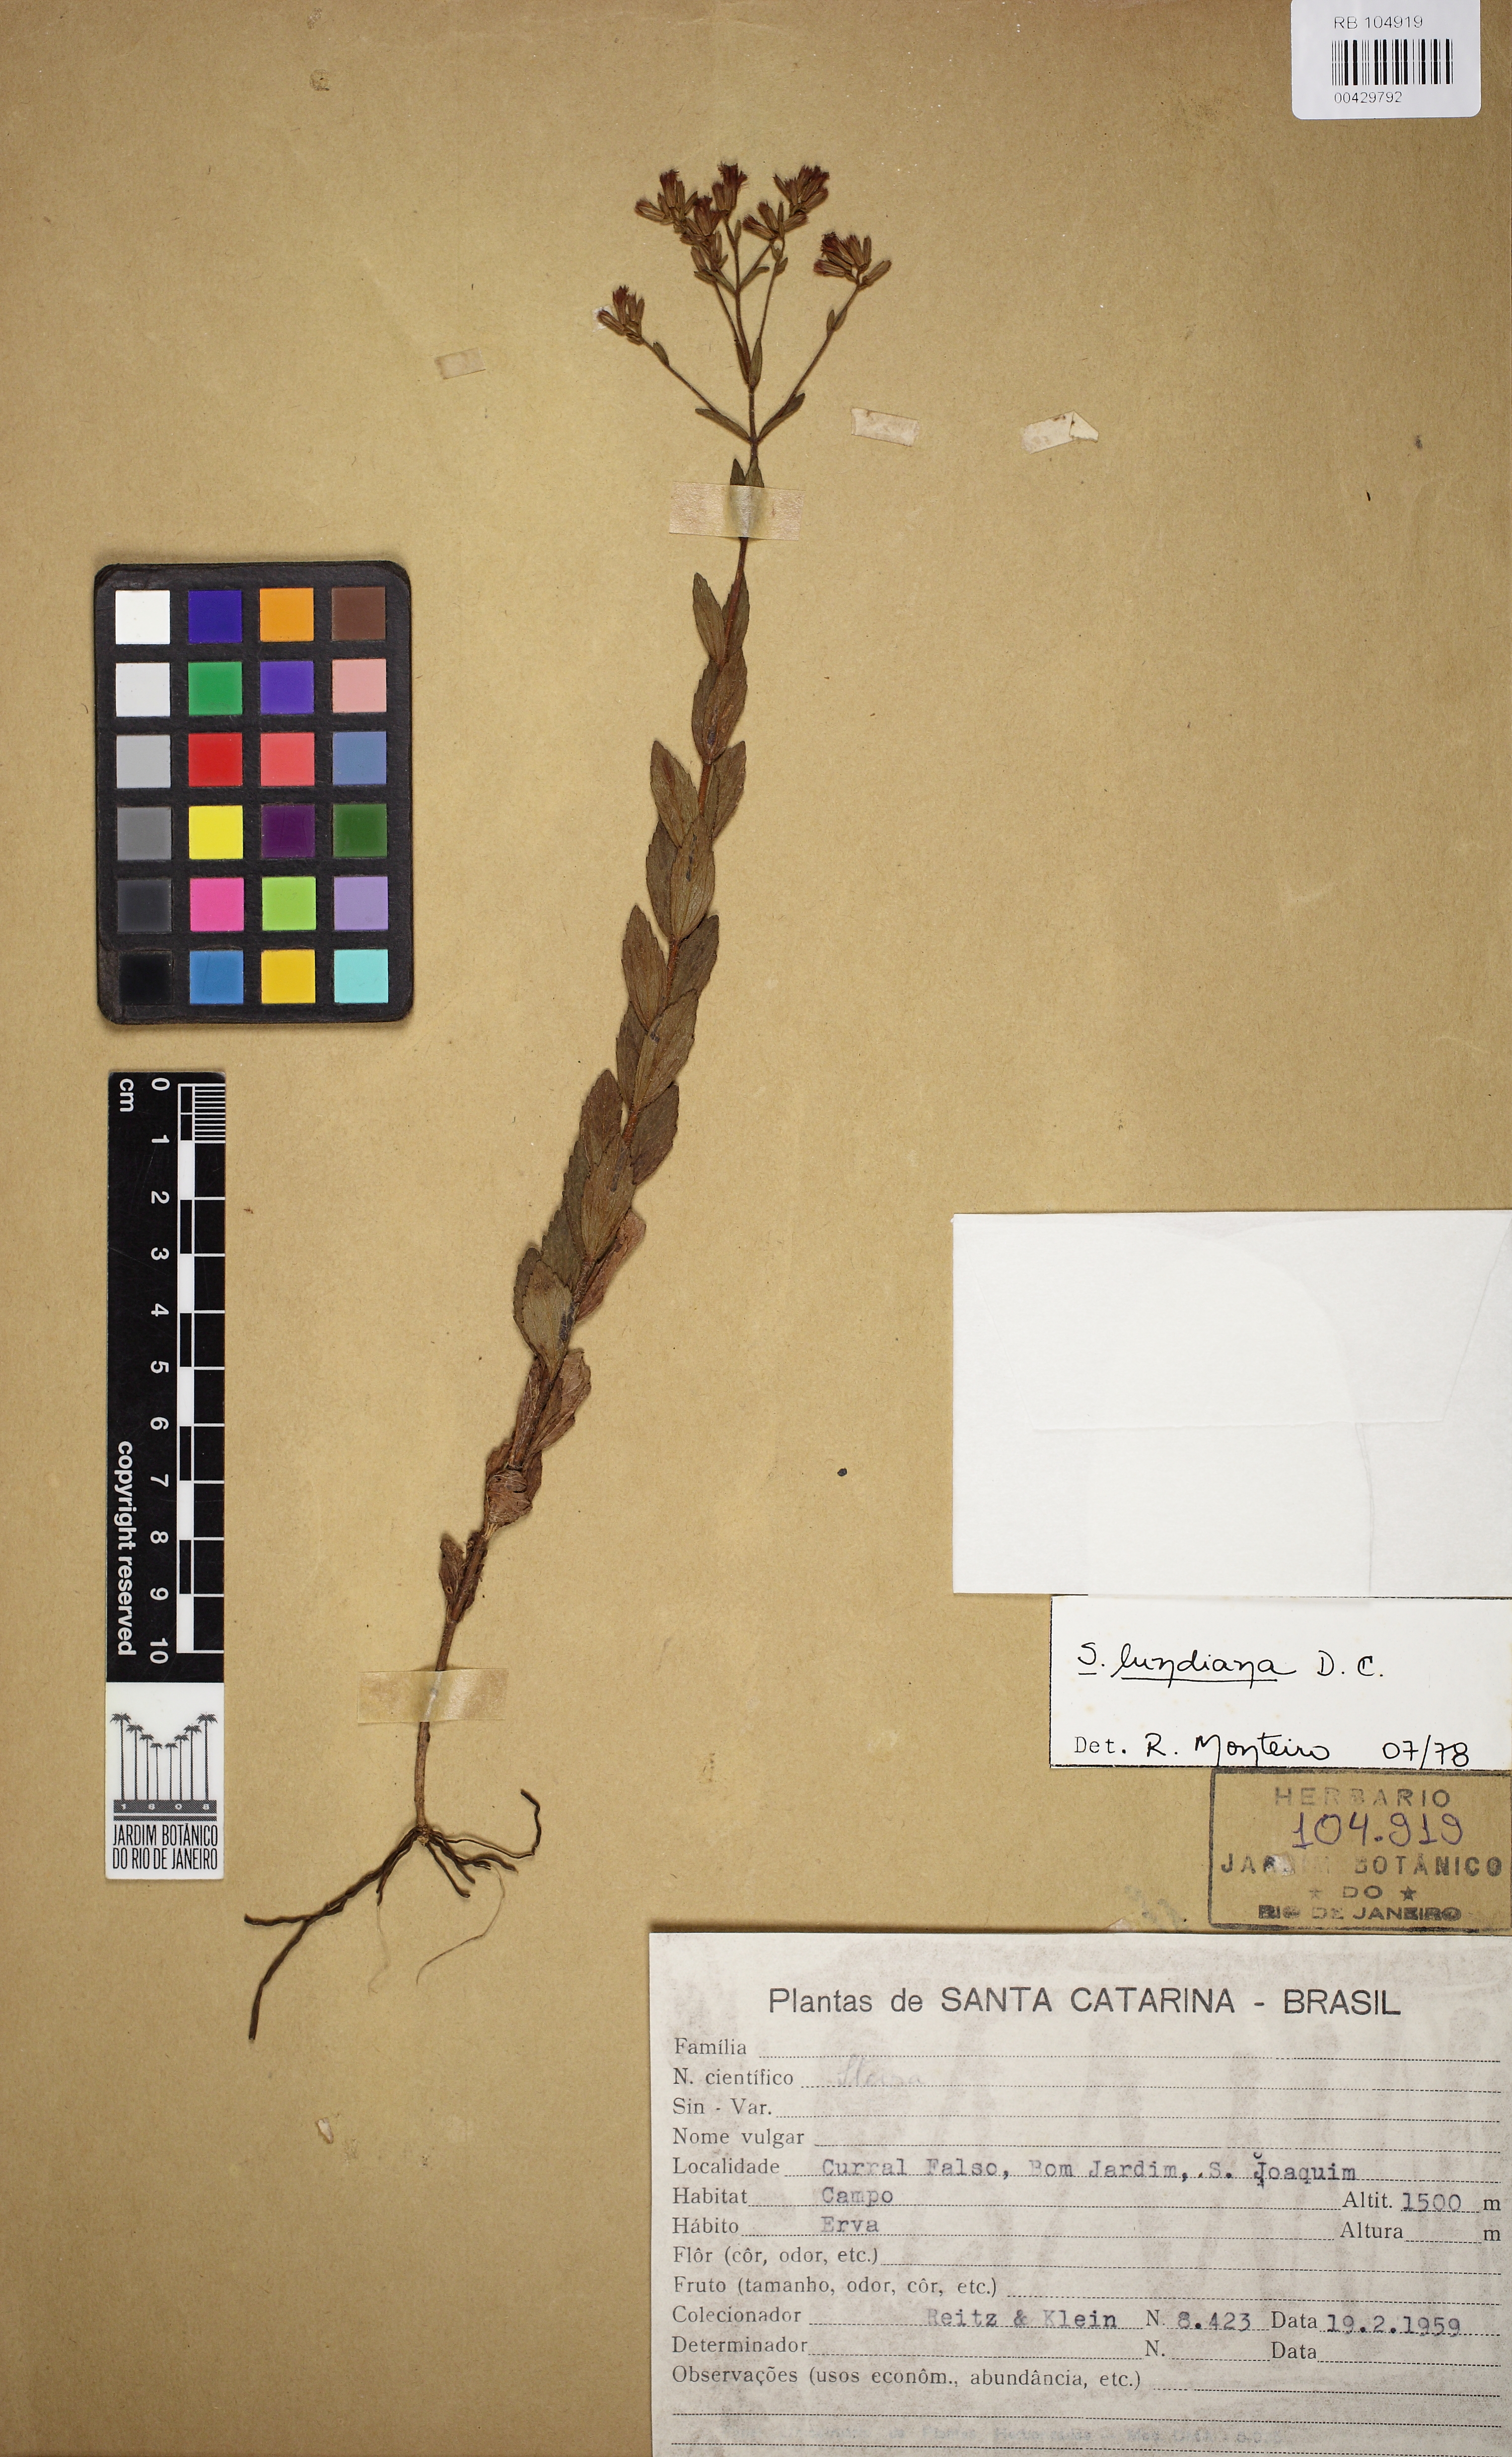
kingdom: Plantae
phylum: Tracheophyta
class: Magnoliopsida
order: Asterales
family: Asteraceae
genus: Stevia
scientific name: Stevia lundiana
